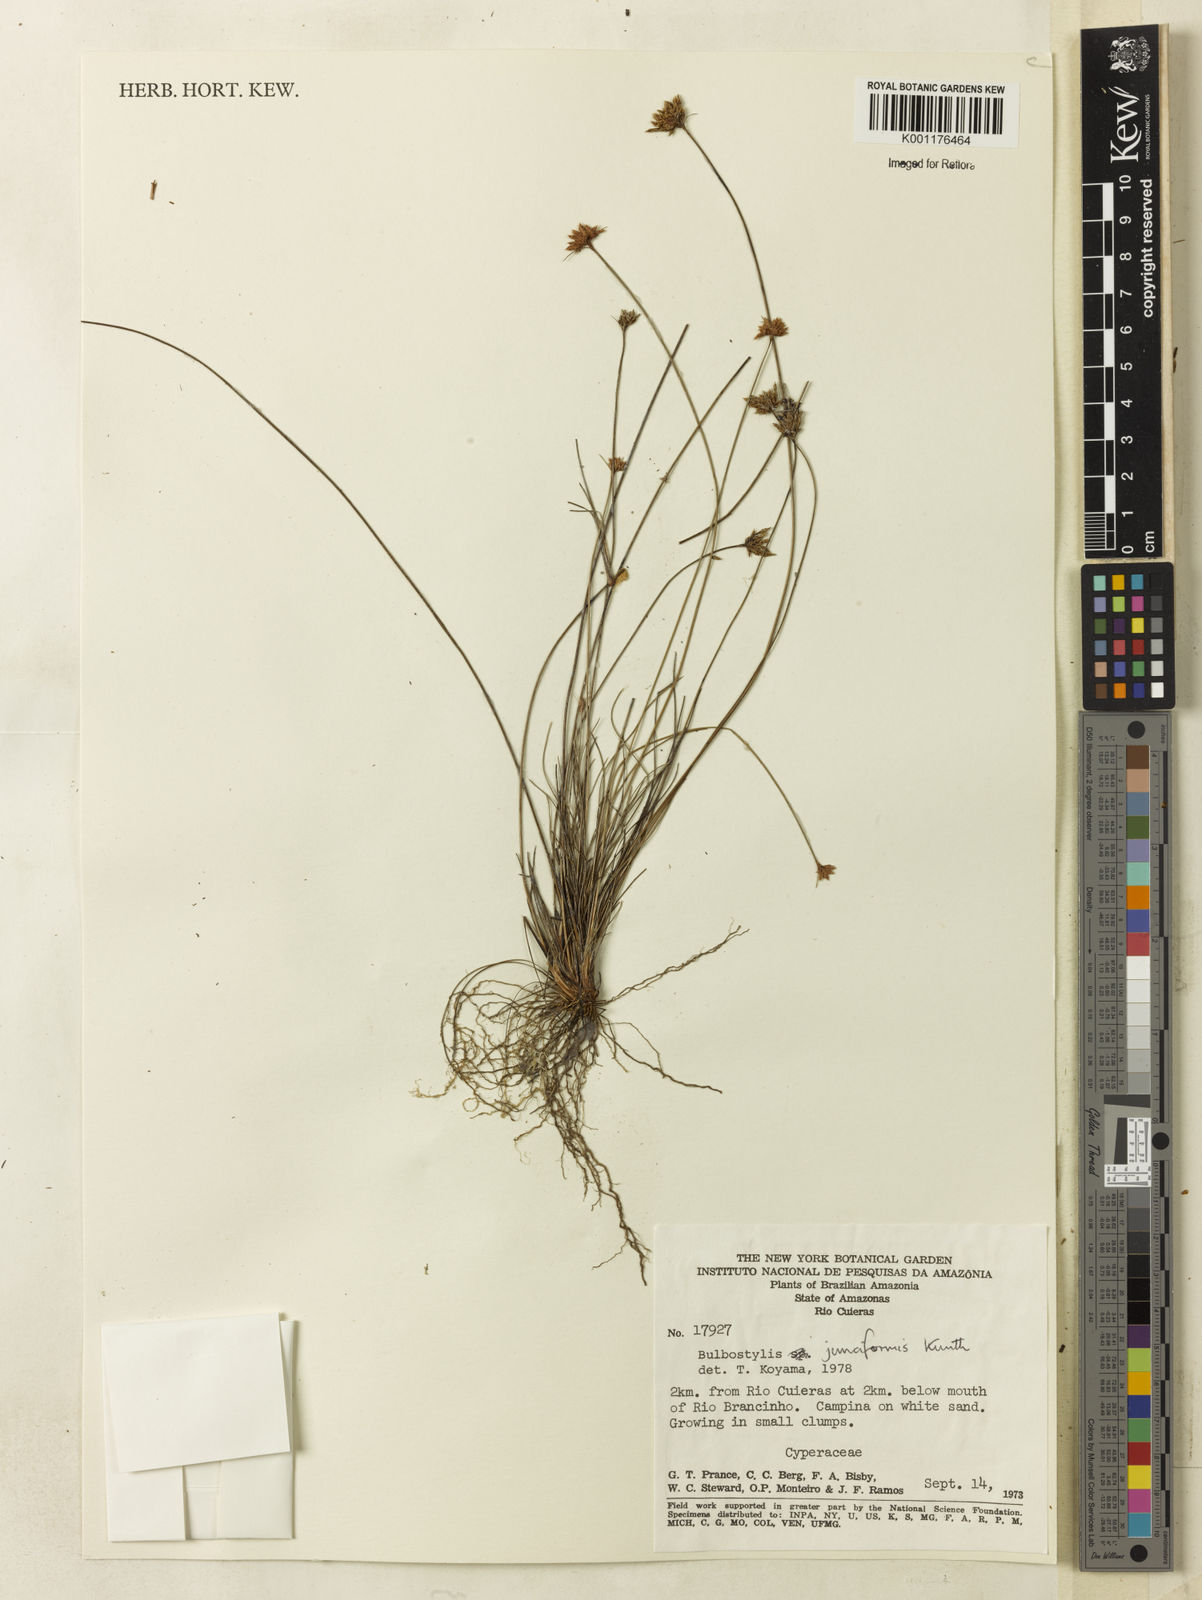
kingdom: Plantae
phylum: Tracheophyta
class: Liliopsida
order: Poales
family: Cyperaceae
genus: Bulbostylis
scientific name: Bulbostylis barbata
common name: Watergrass
